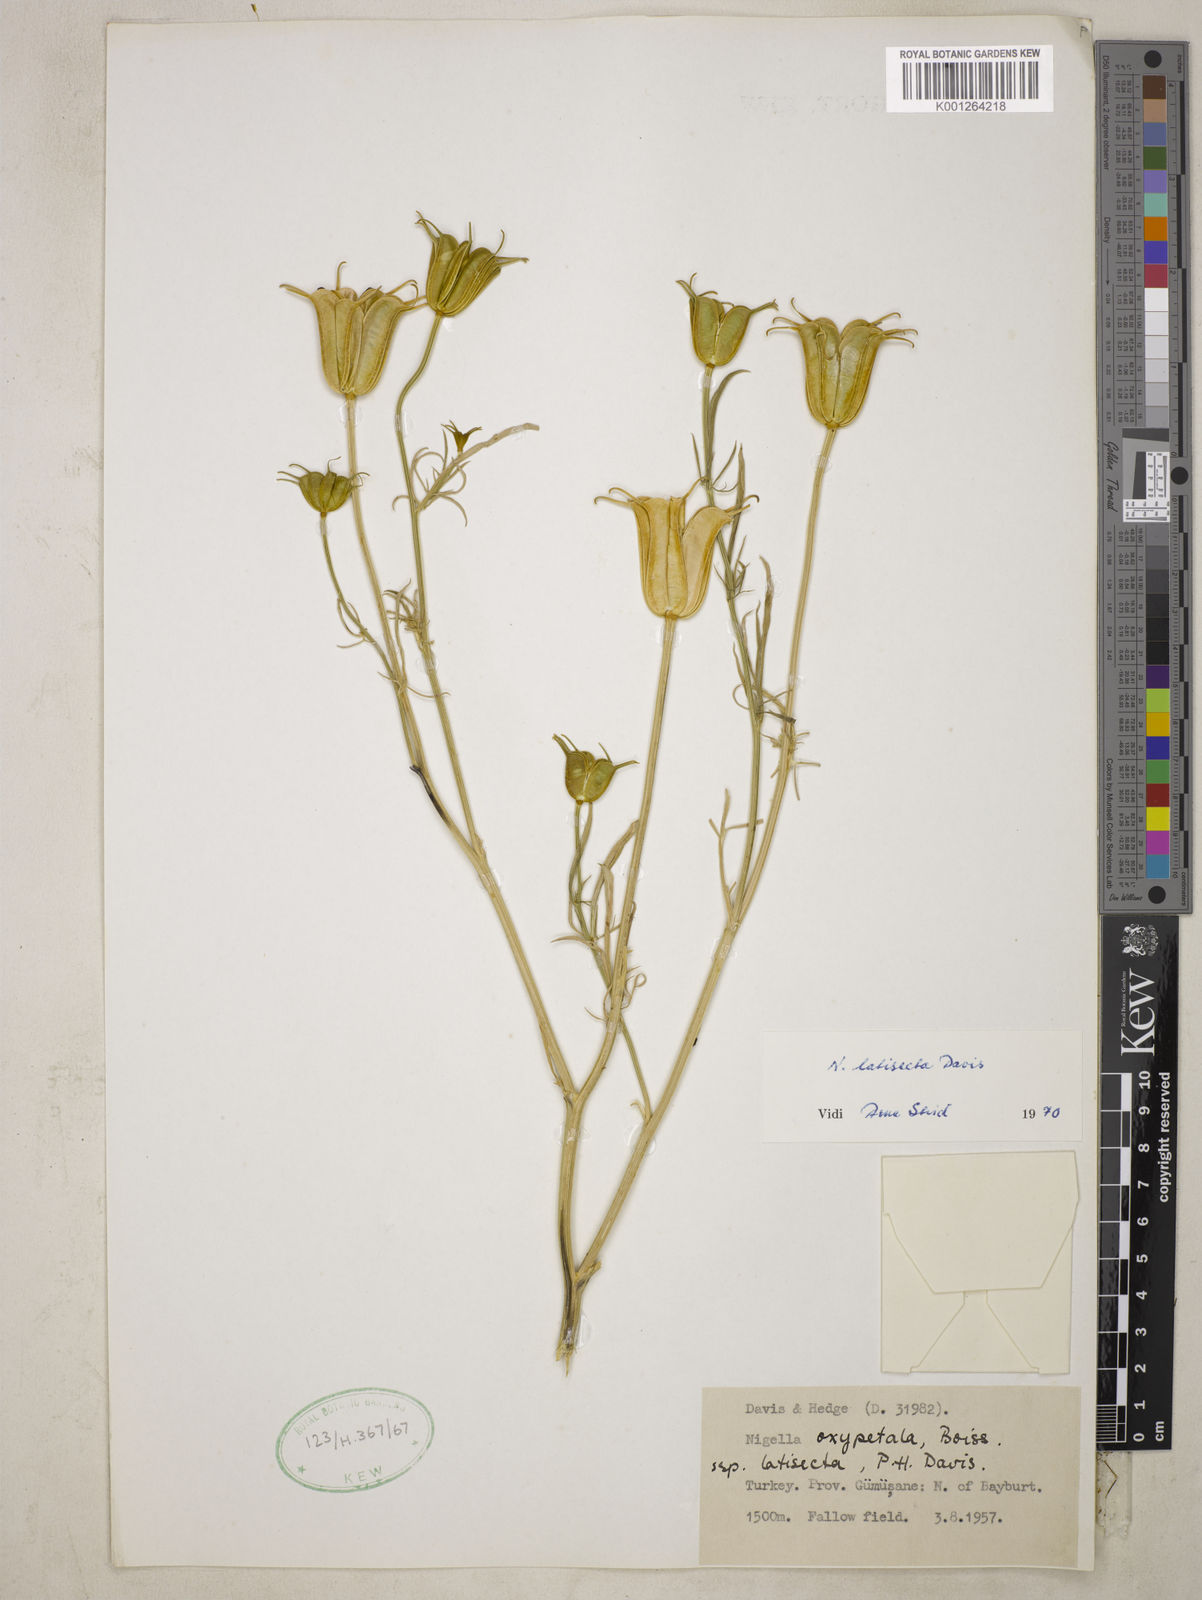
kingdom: Plantae
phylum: Tracheophyta
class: Magnoliopsida
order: Ranunculales
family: Ranunculaceae
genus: Nigella
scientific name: Nigella oxypetala
